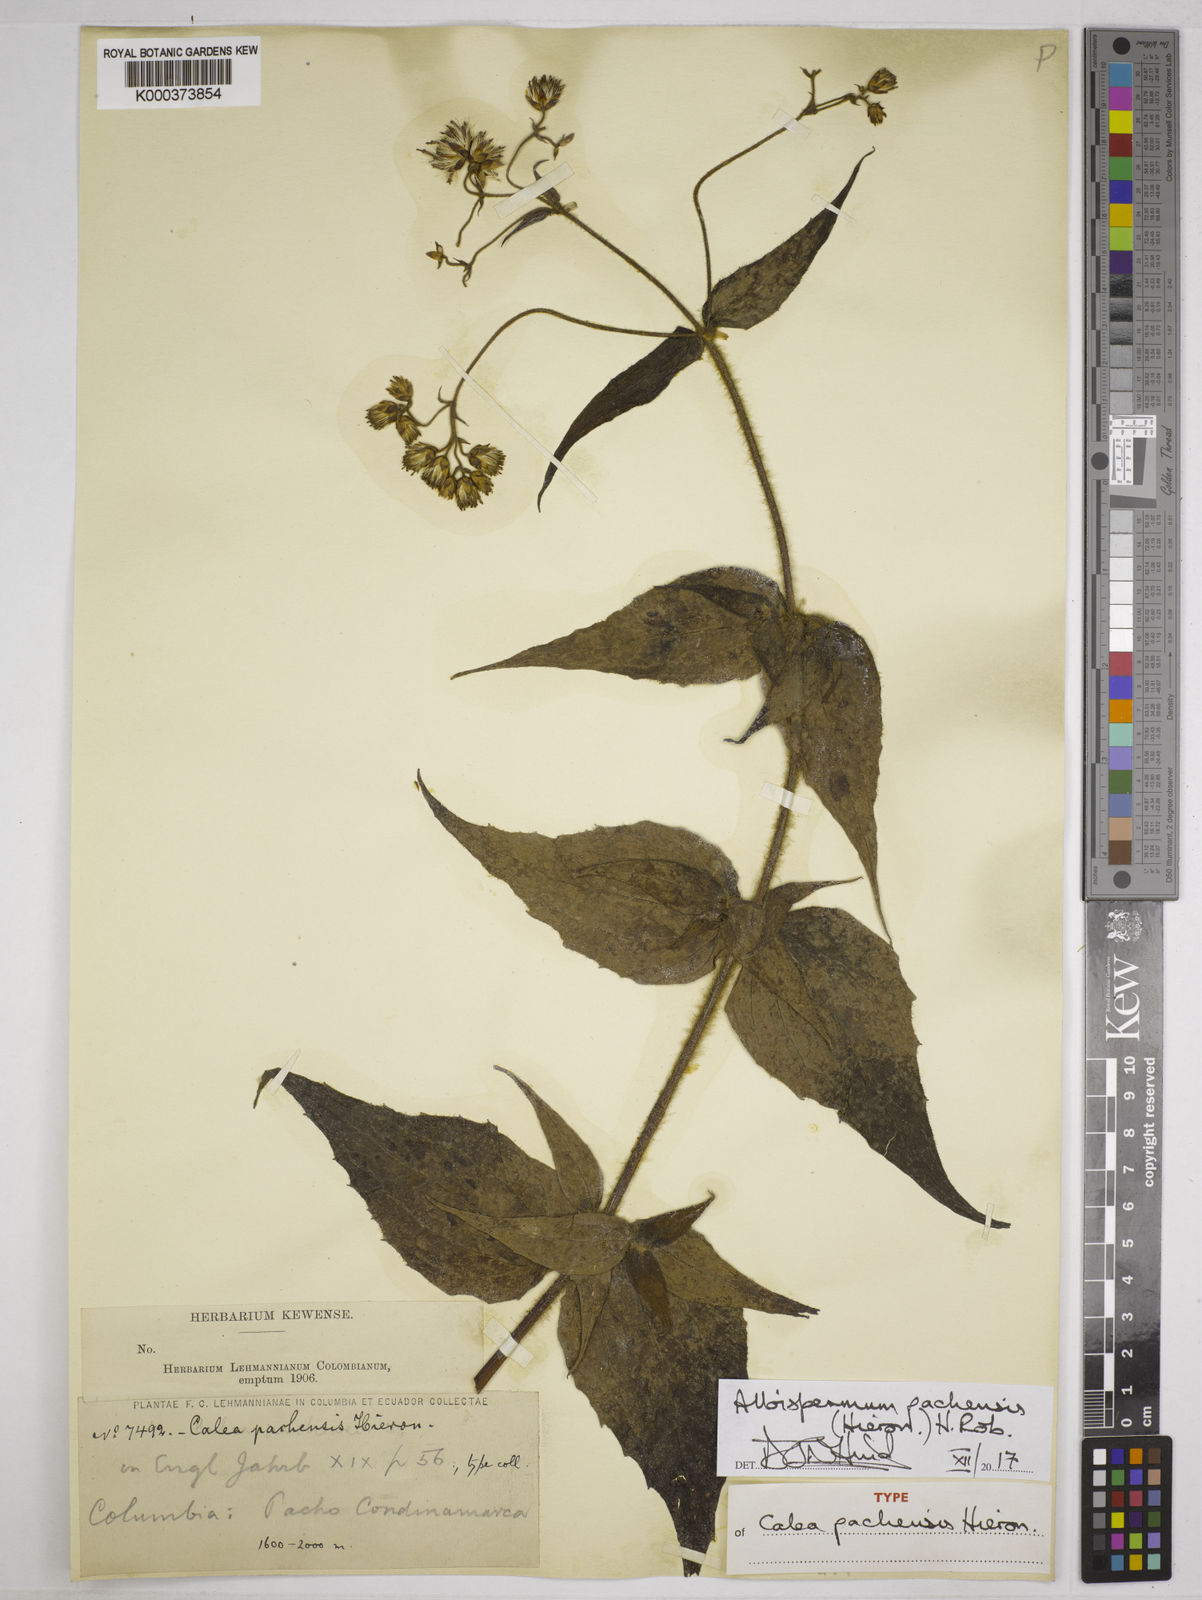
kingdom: Plantae
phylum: Tracheophyta
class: Magnoliopsida
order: Asterales
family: Asteraceae
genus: Alloispermum
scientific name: Alloispermum pachensis
